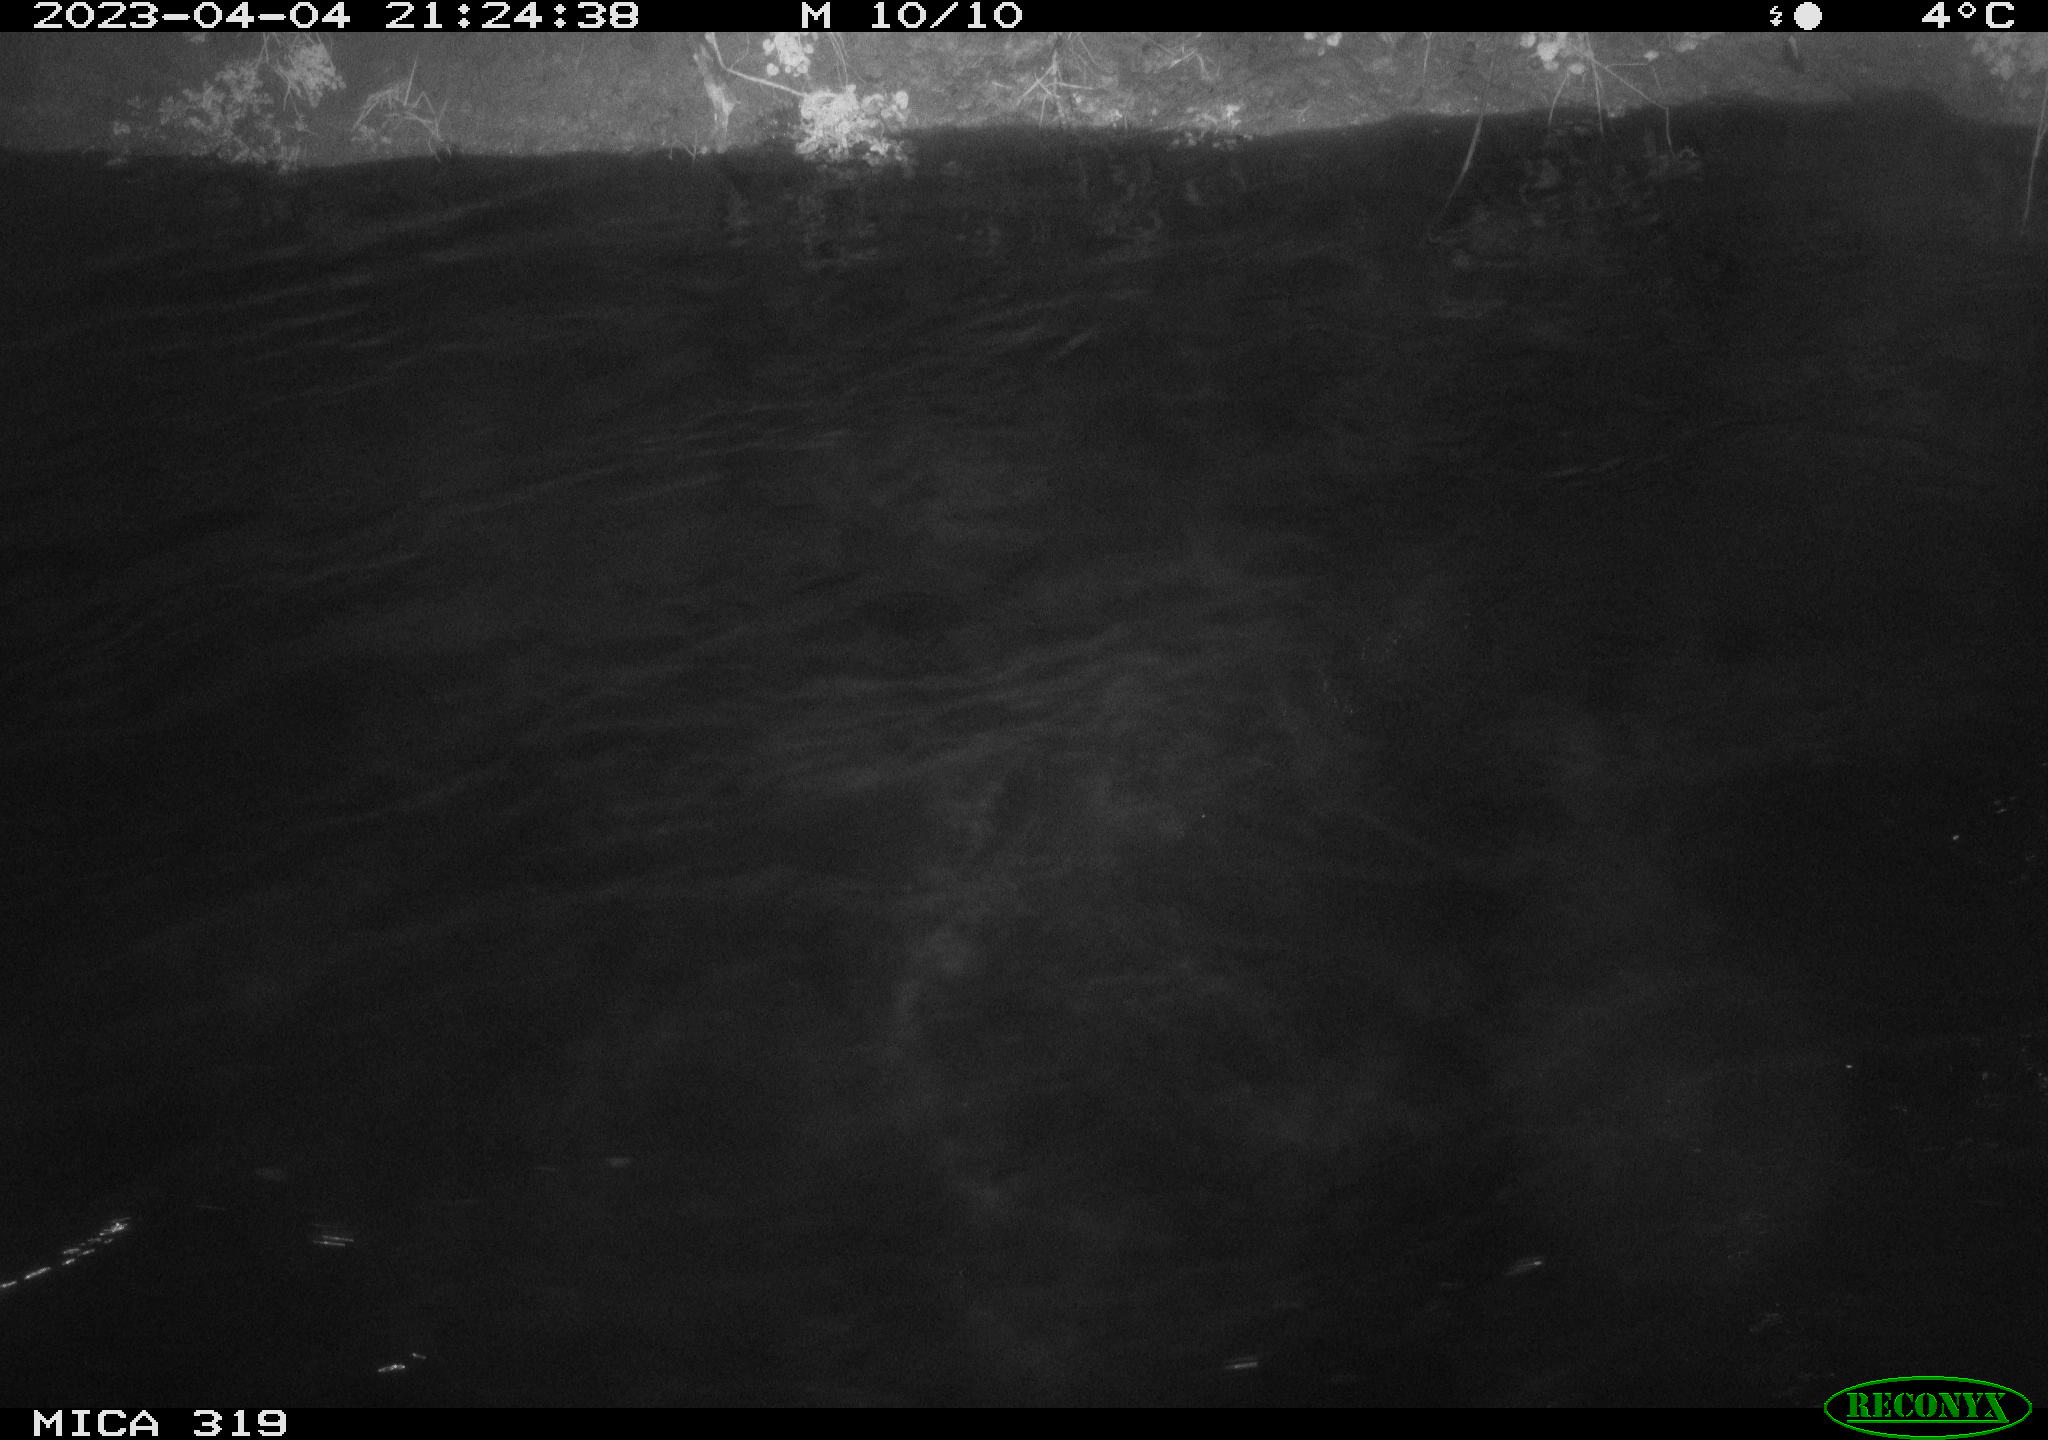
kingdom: Animalia
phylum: Chordata
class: Aves
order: Anseriformes
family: Anatidae
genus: Anas
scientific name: Anas
